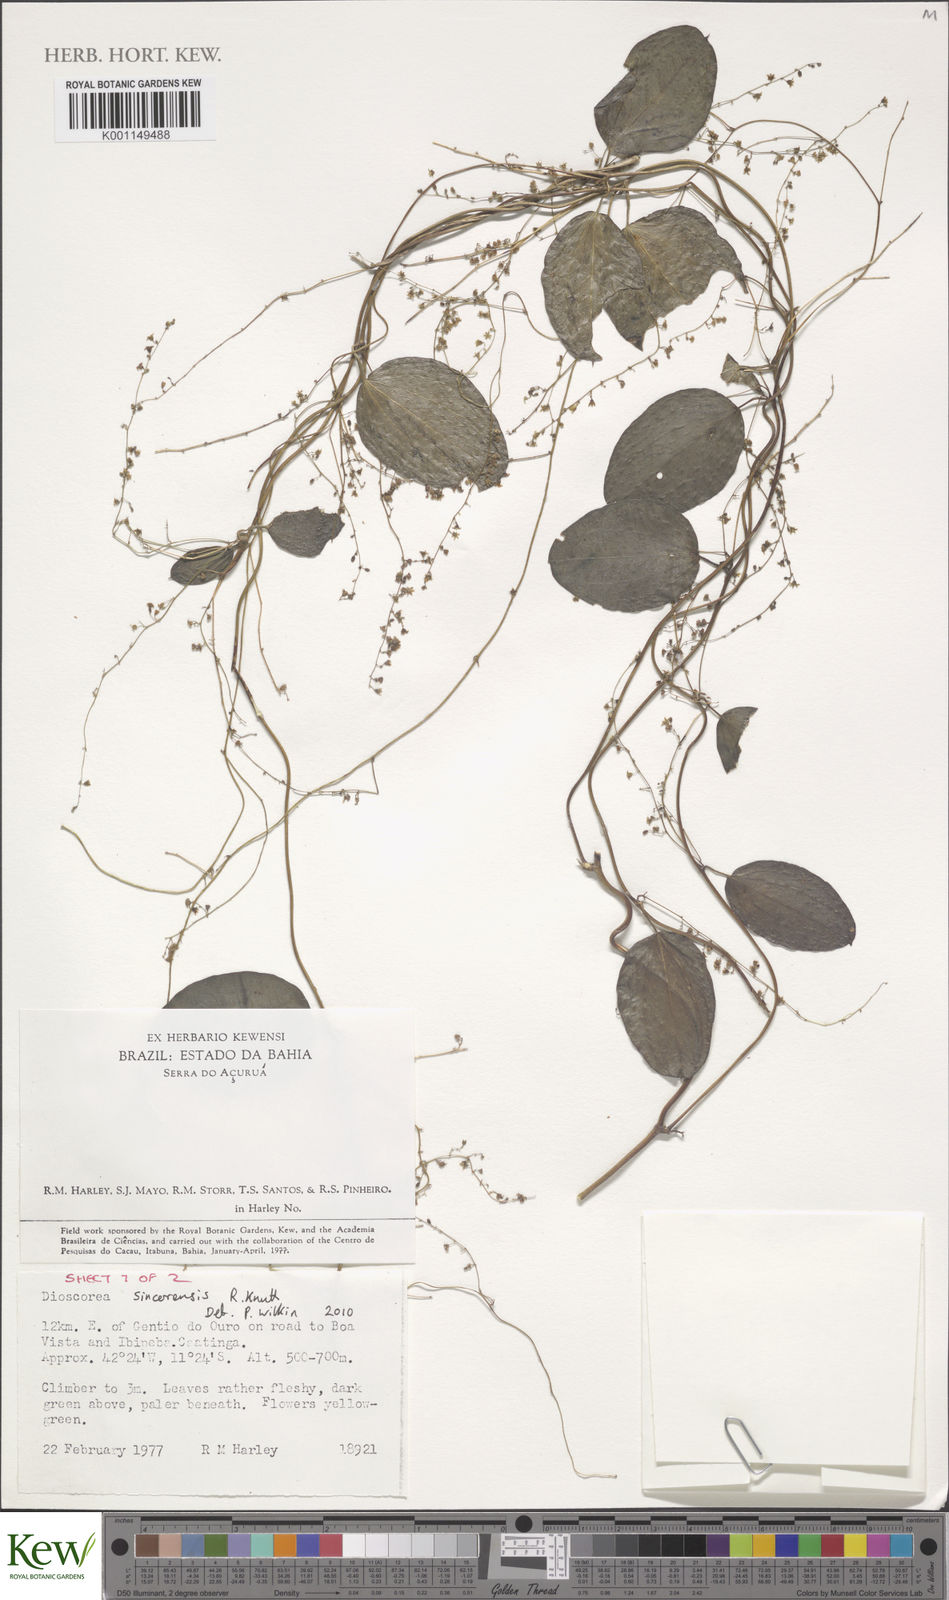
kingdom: Plantae
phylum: Tracheophyta
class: Liliopsida
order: Dioscoreales
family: Dioscoreaceae
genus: Dioscorea
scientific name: Dioscorea campestris
